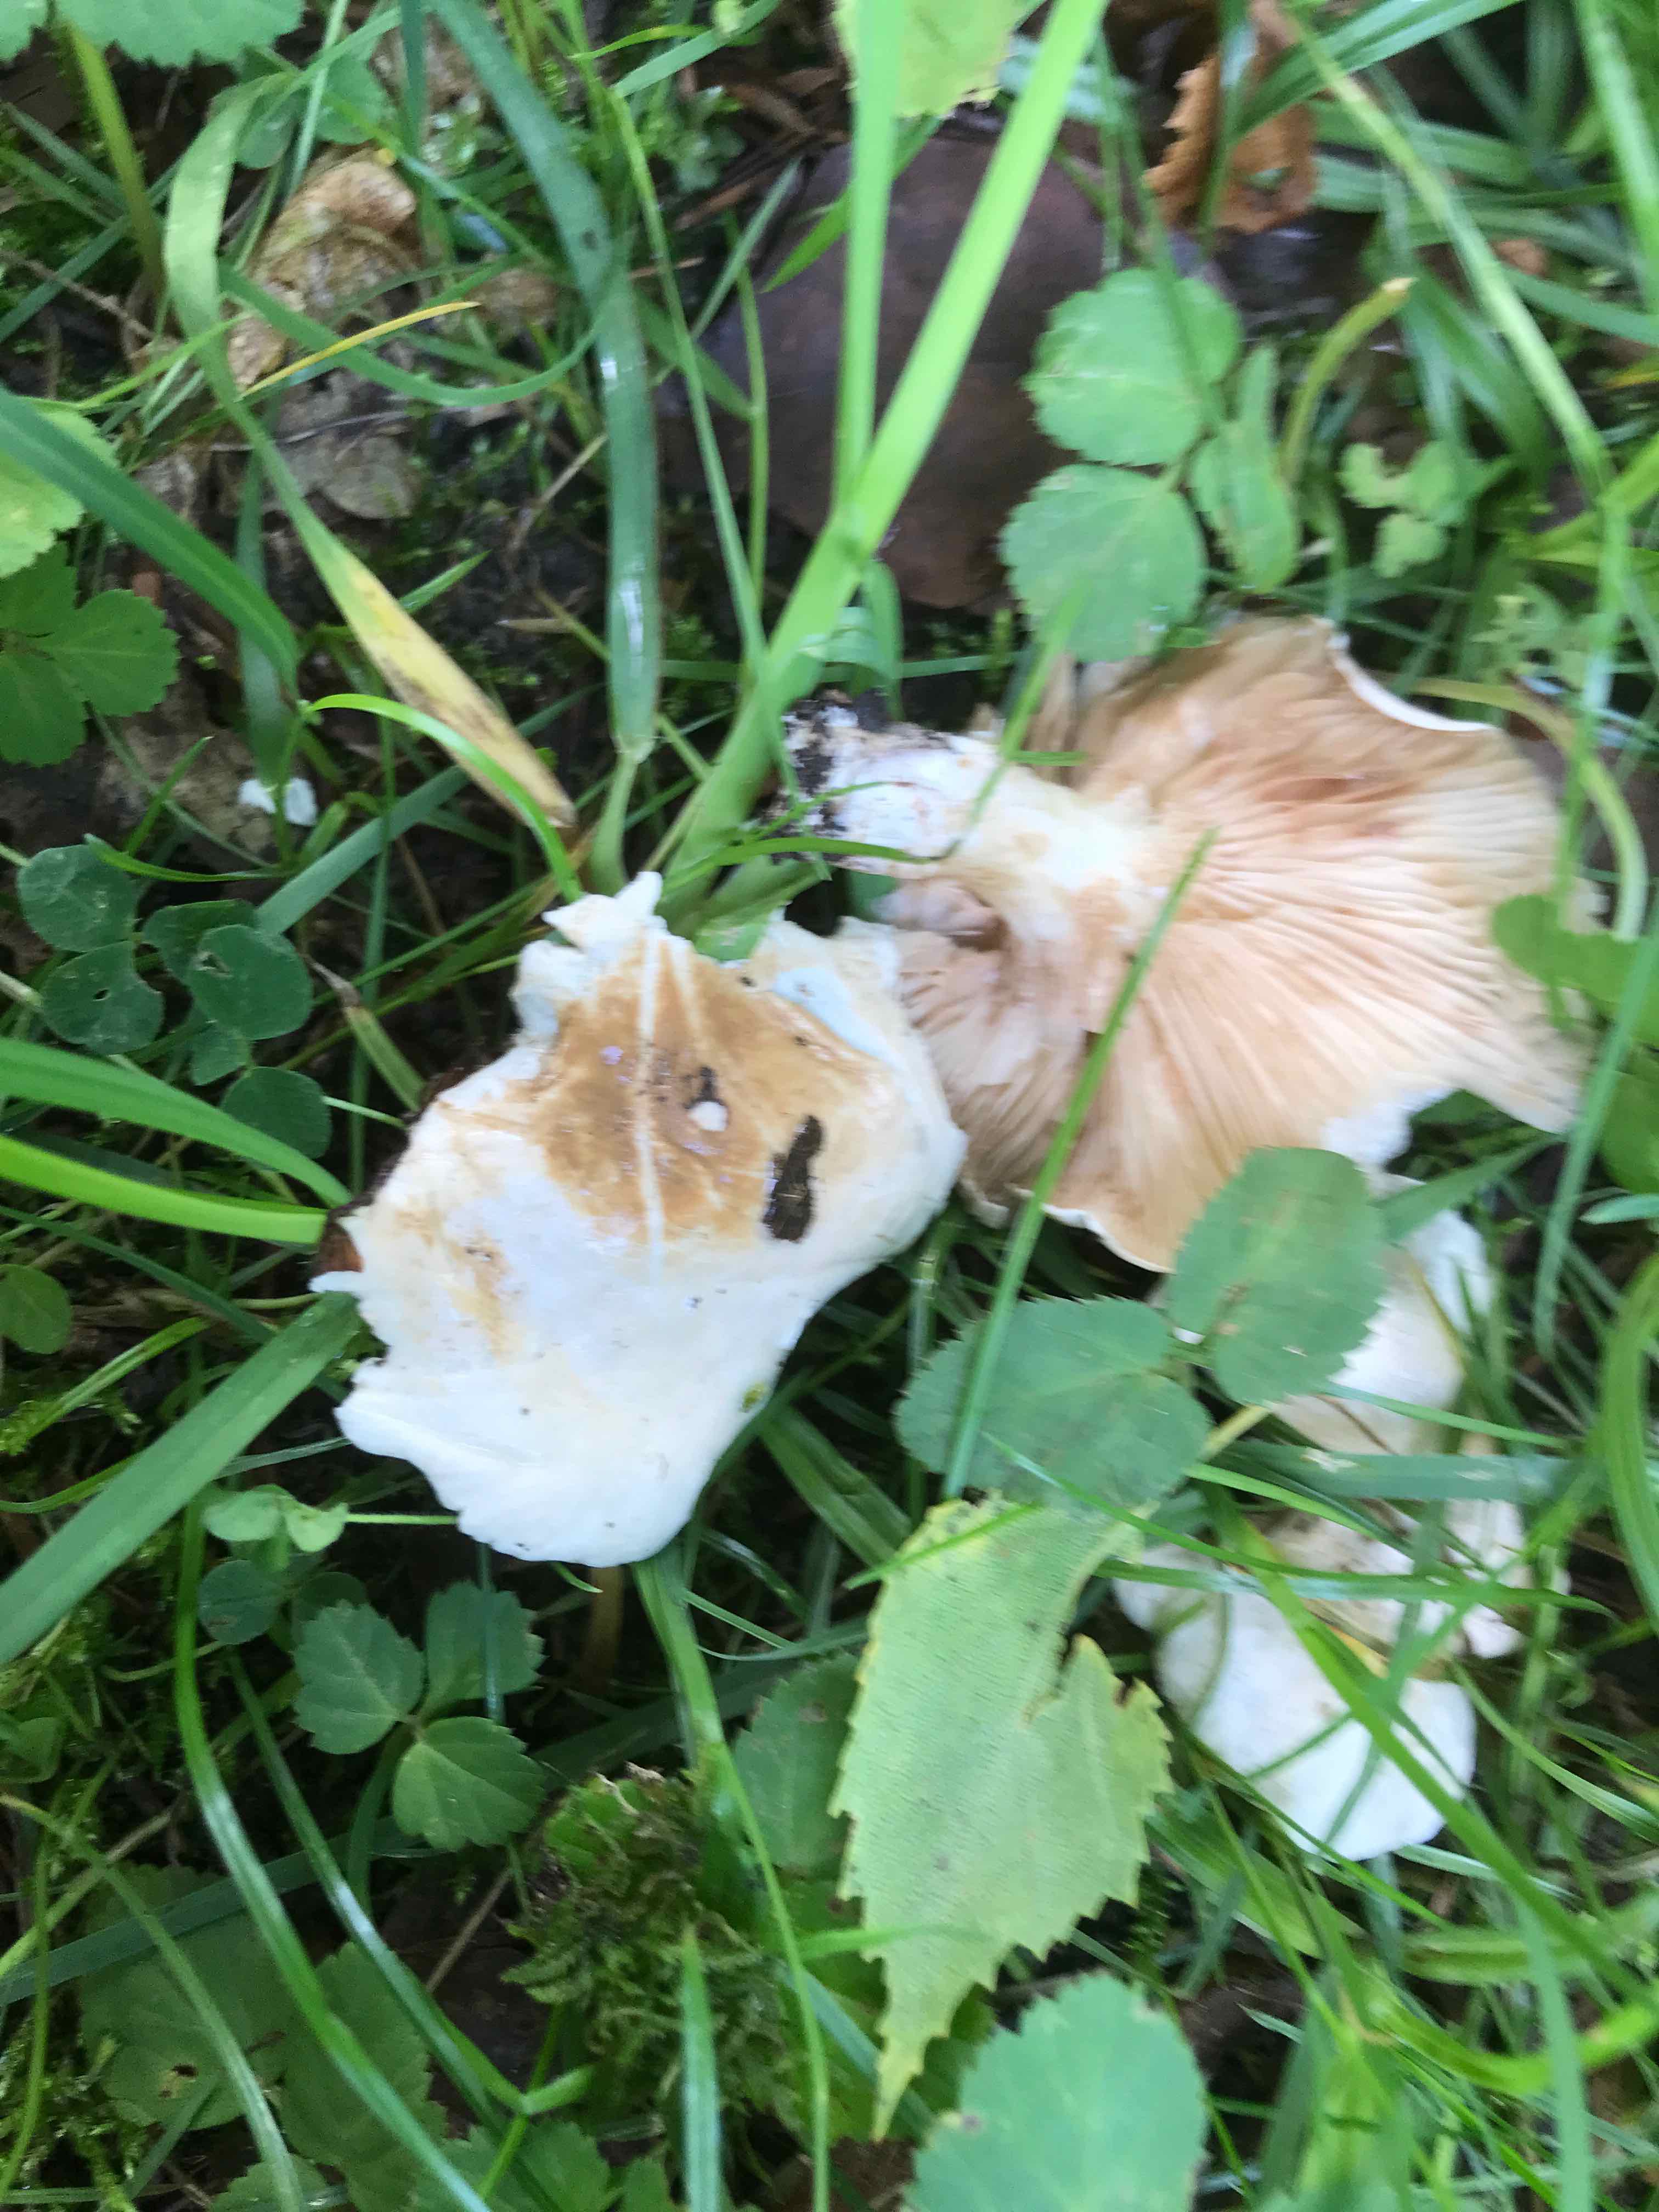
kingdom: Fungi
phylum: Basidiomycota
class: Agaricomycetes
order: Agaricales
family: Entolomataceae
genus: Clitopilus
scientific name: Clitopilus prunulus
